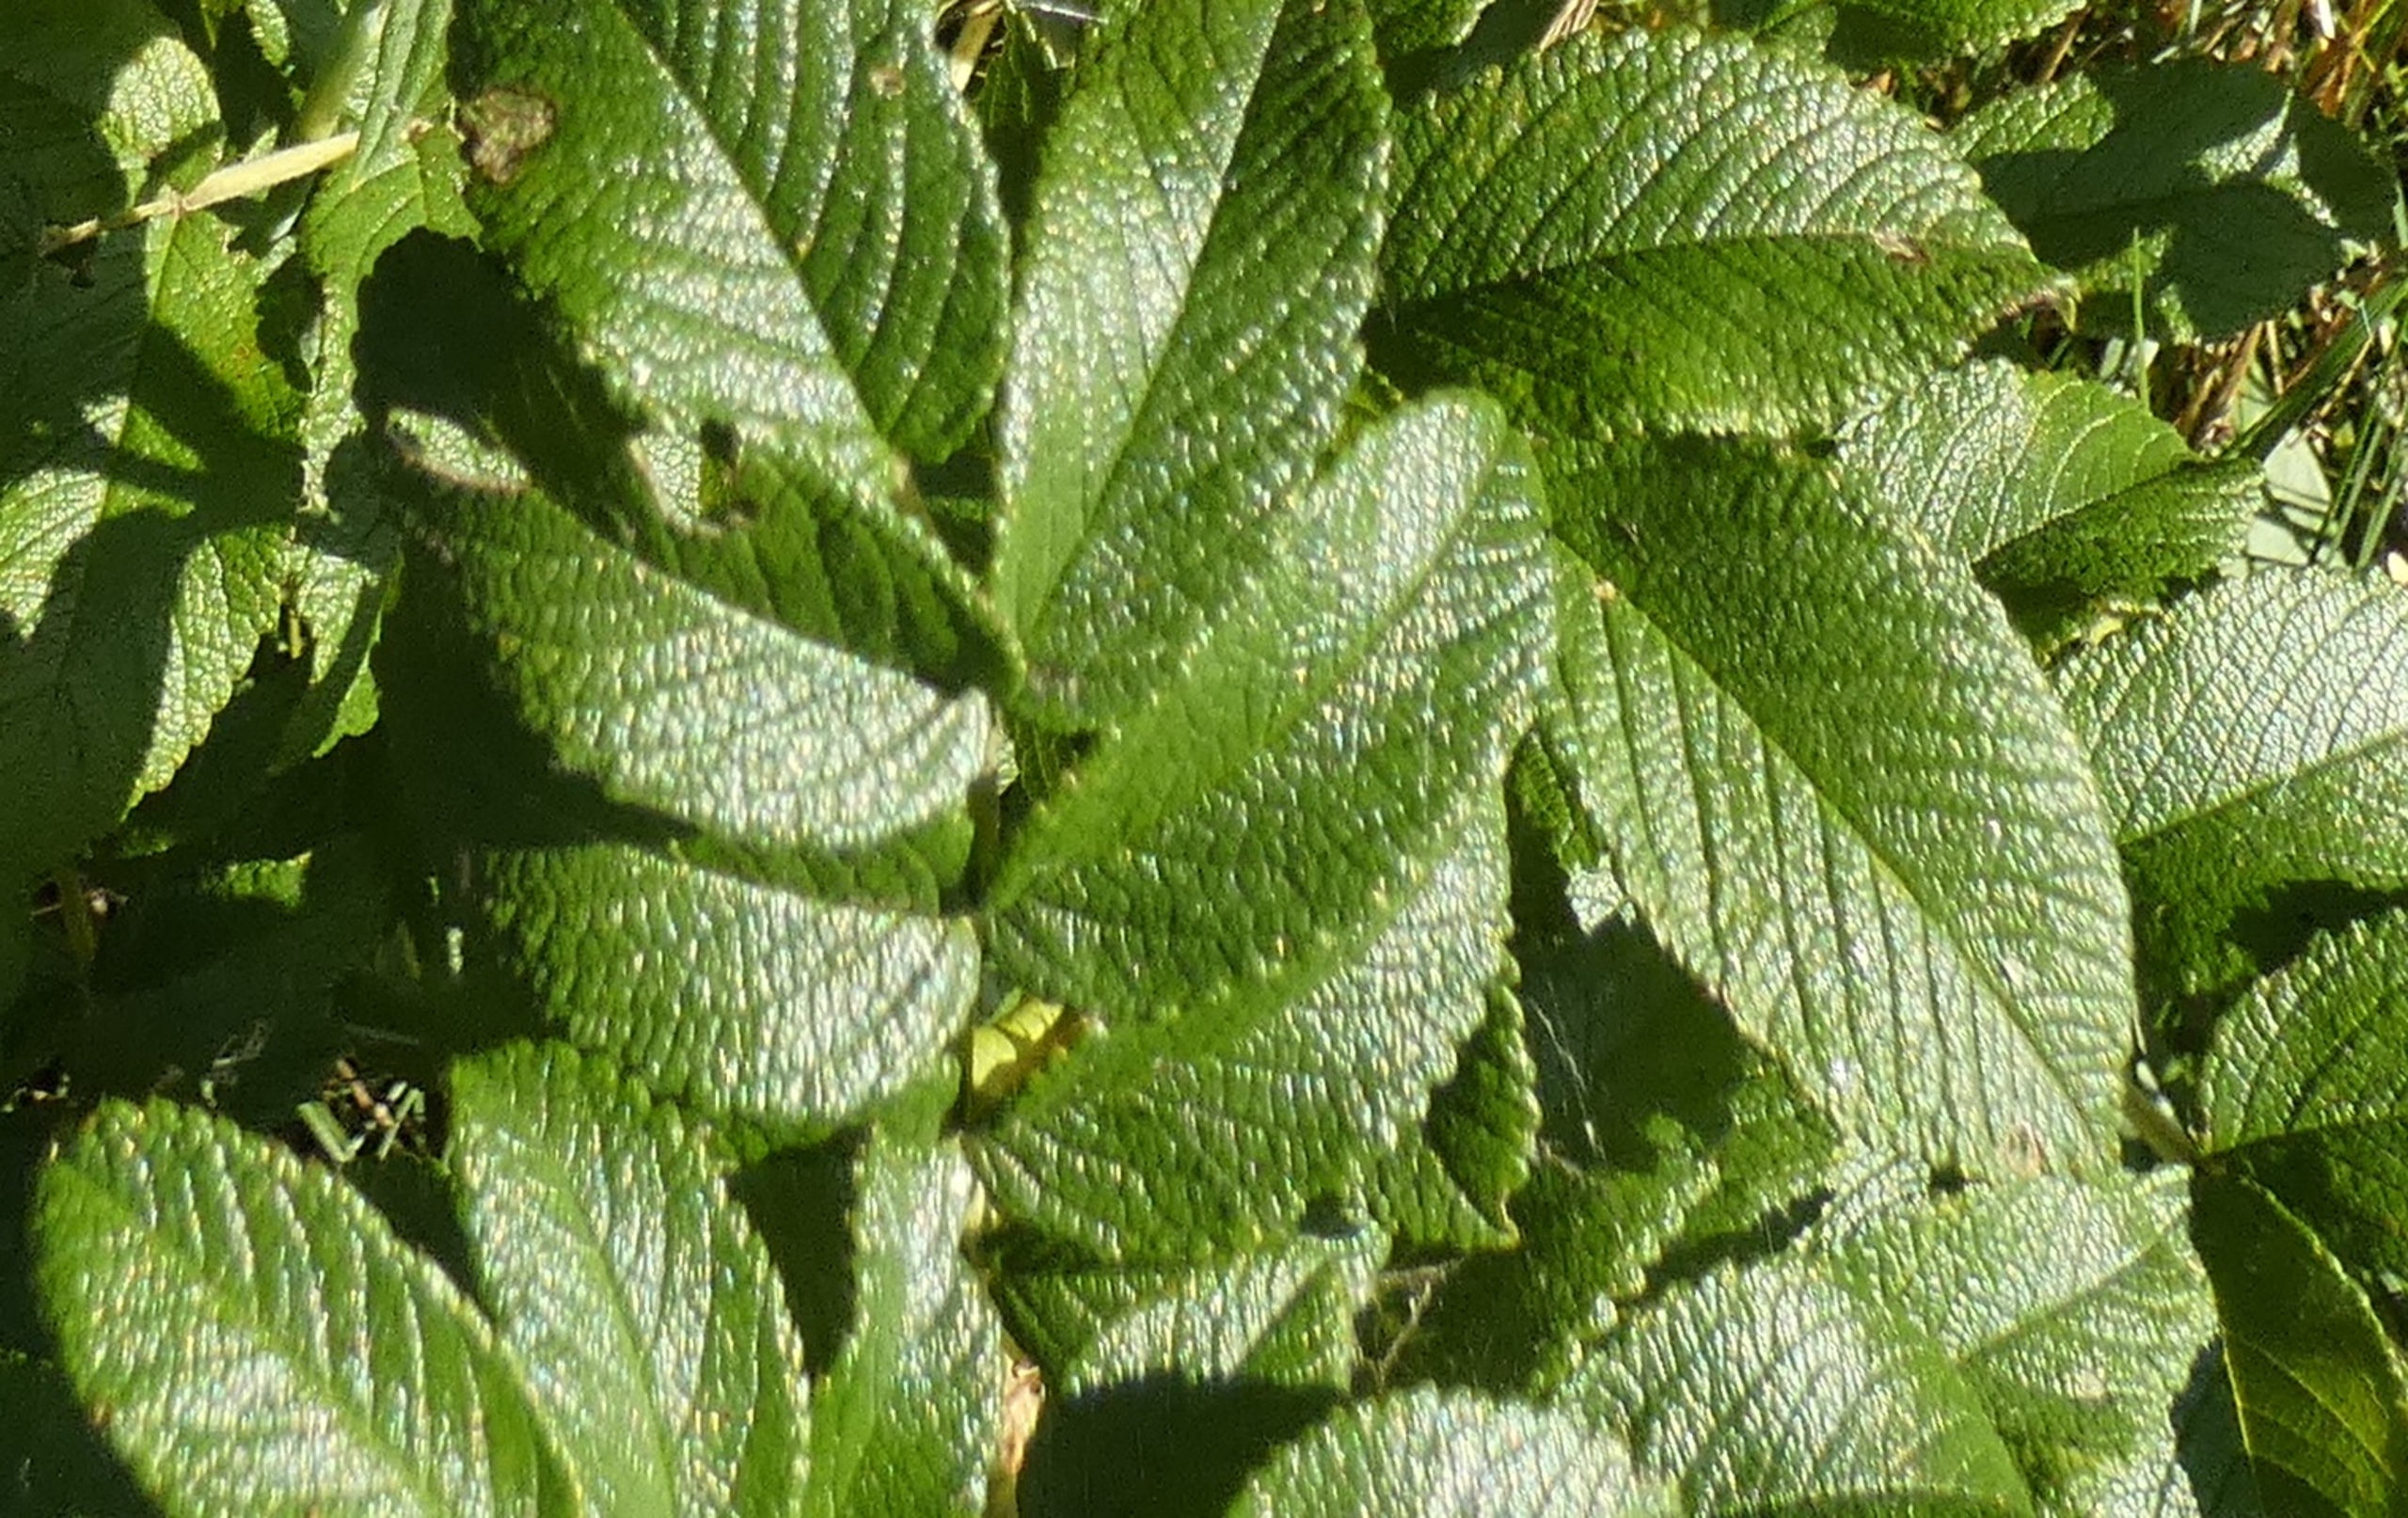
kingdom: Plantae
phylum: Tracheophyta
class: Magnoliopsida
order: Rosales
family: Rosaceae
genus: Rosa
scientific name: Rosa rugosa
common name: Rynket rose
